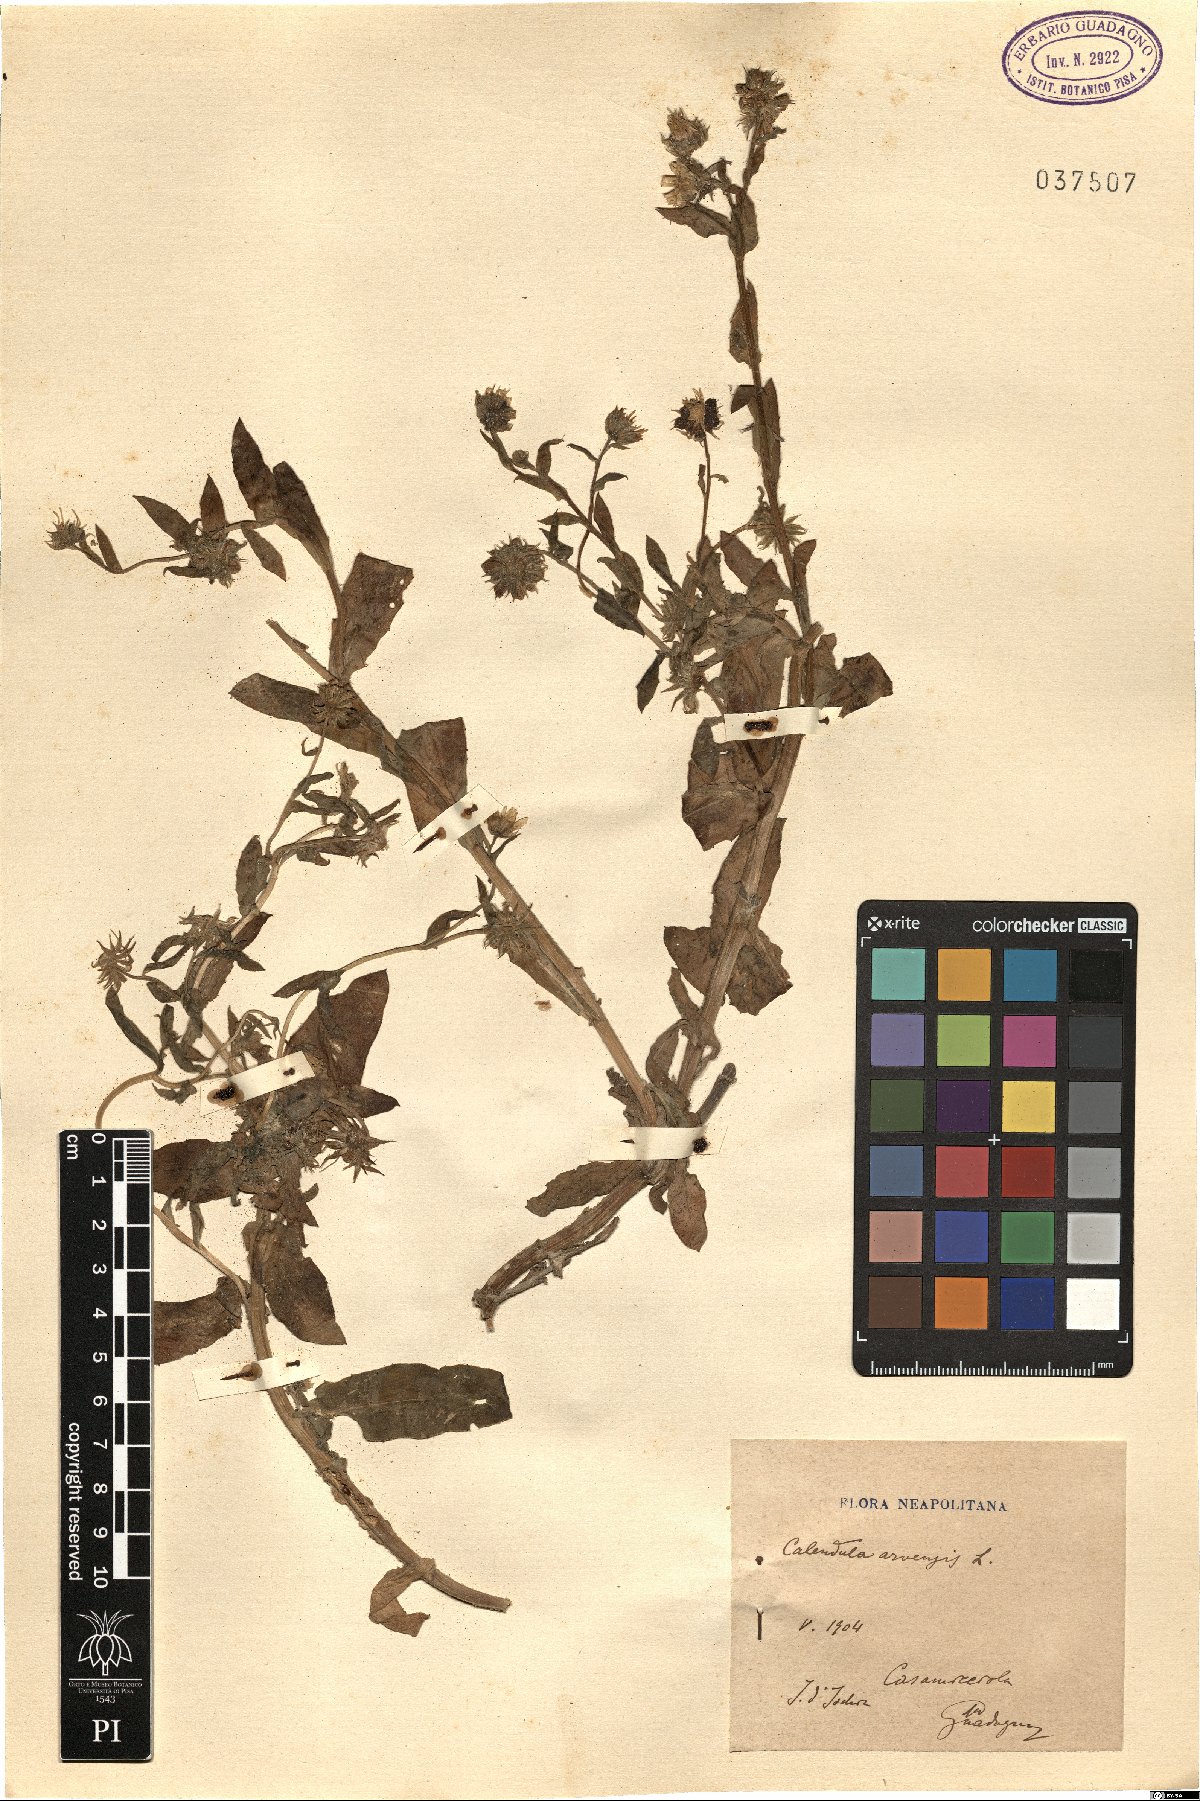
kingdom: Plantae
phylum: Tracheophyta
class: Magnoliopsida
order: Asterales
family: Asteraceae
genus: Calendula
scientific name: Calendula arvensis
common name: Field marigold
